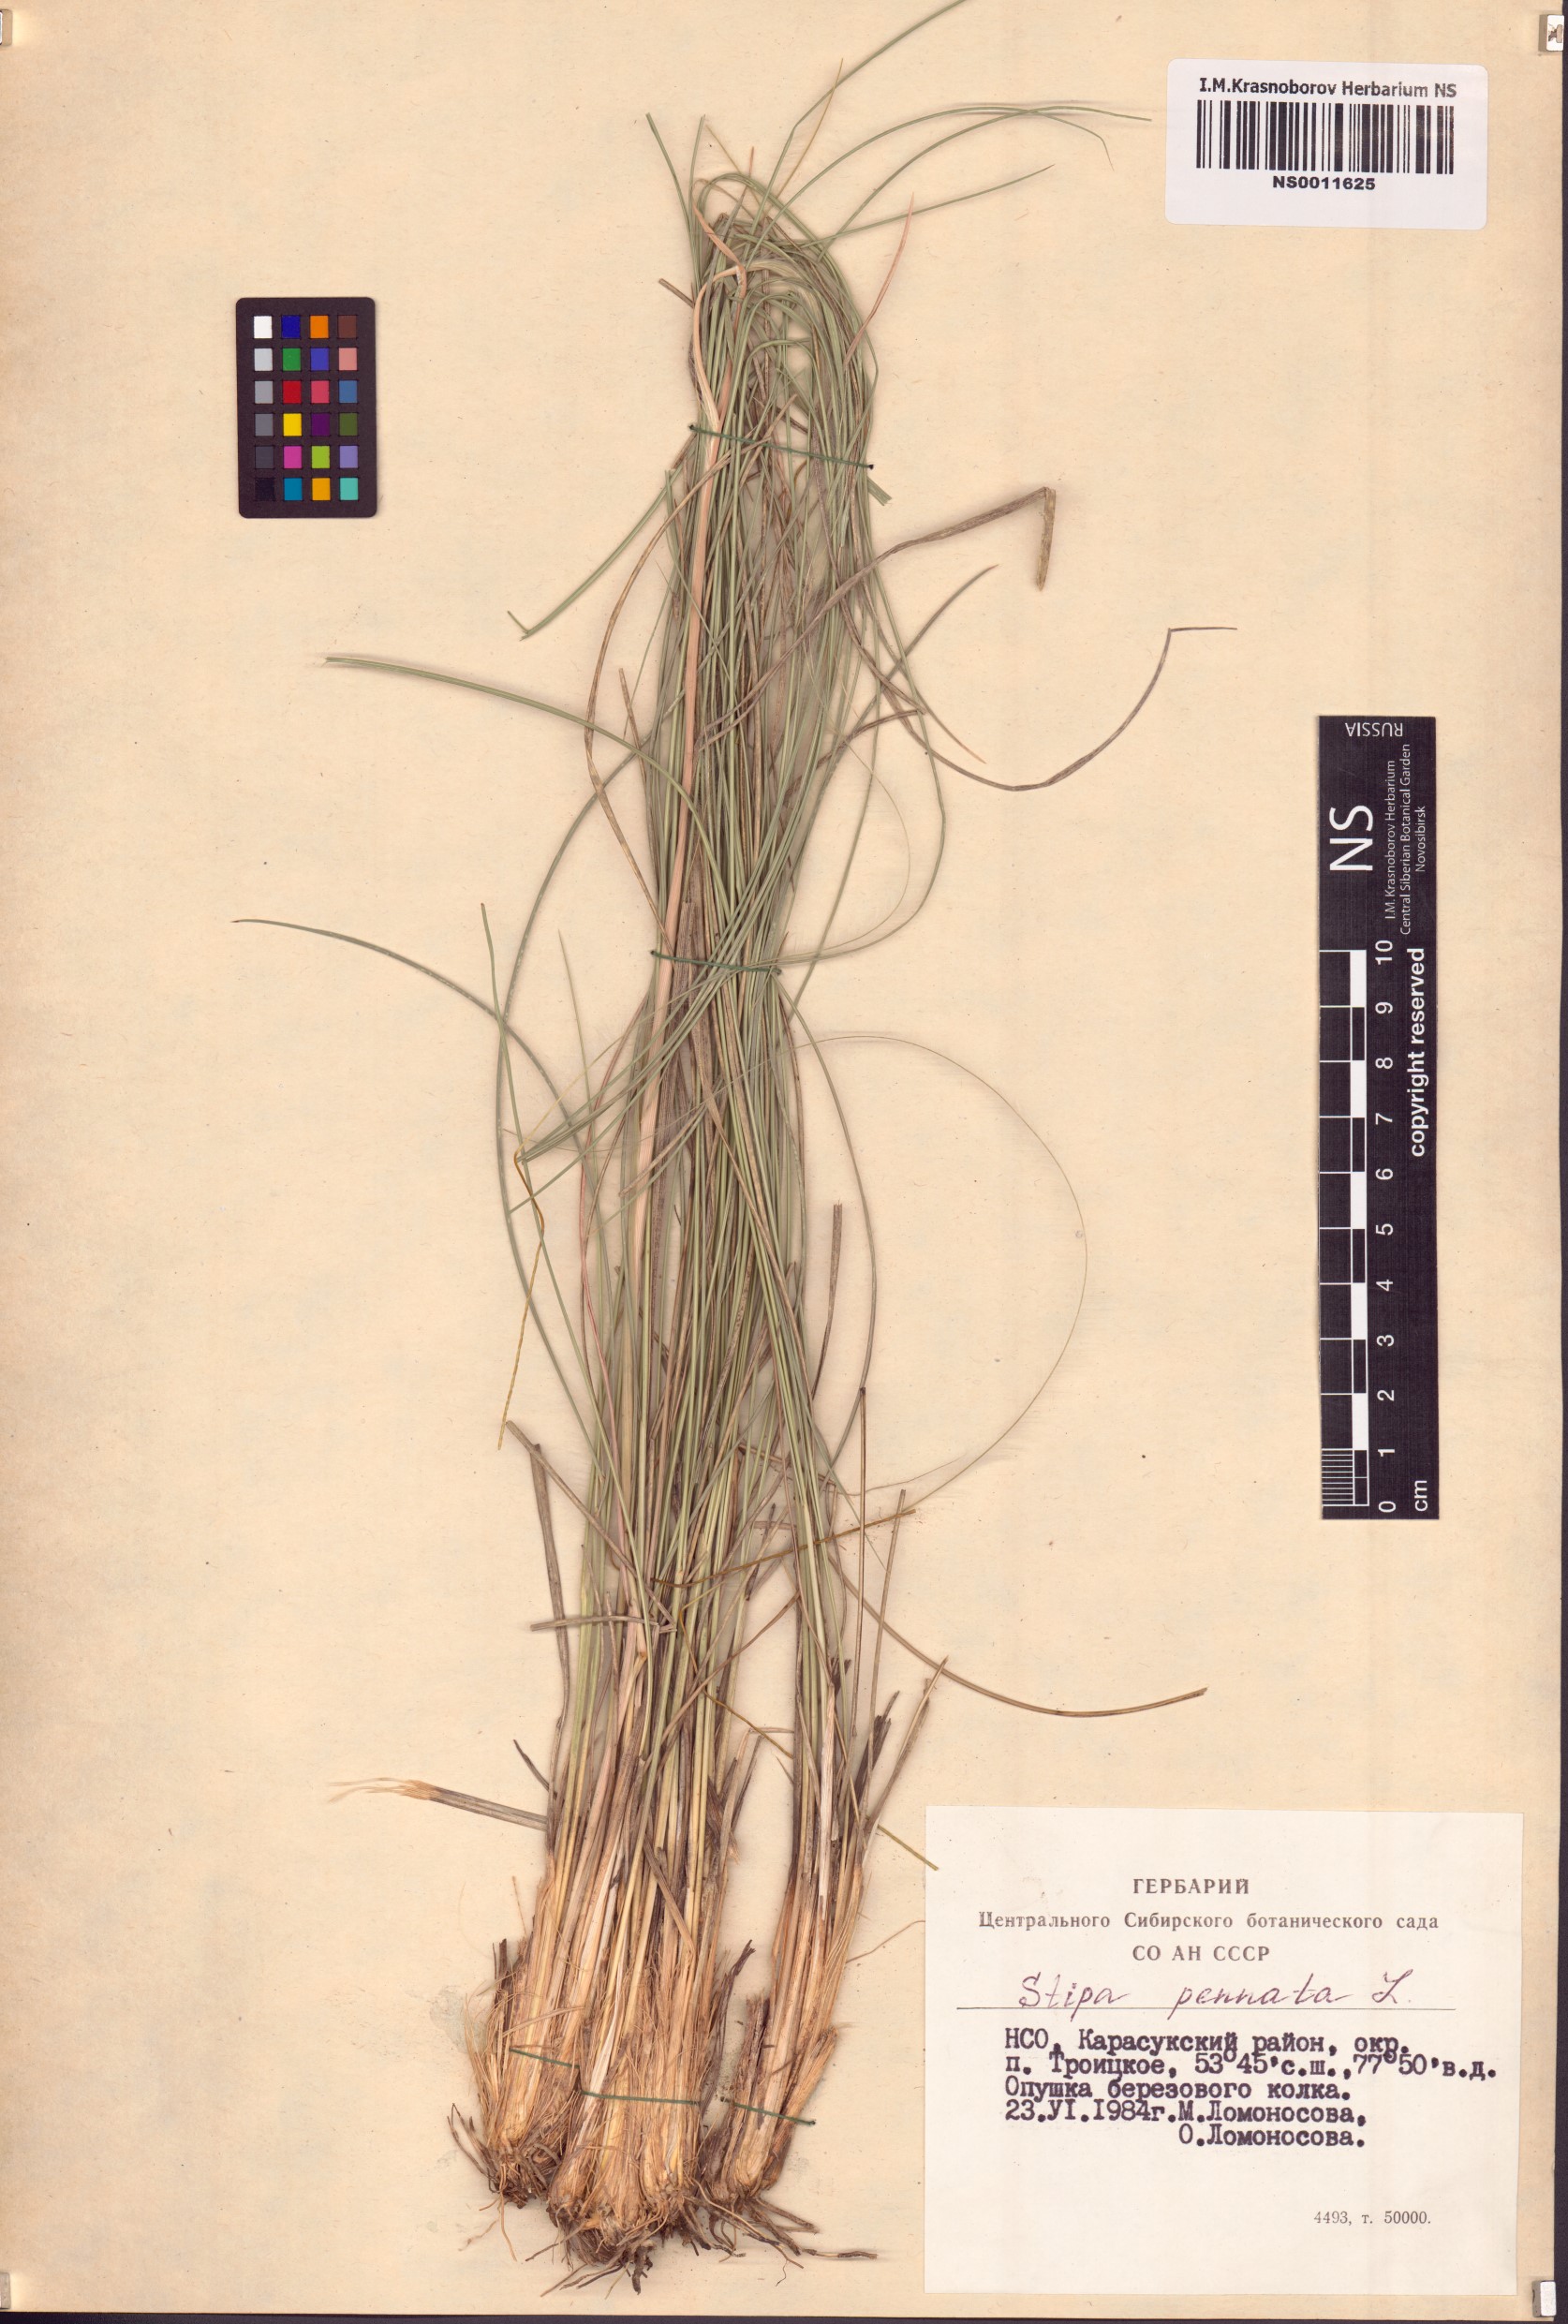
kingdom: Plantae
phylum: Tracheophyta
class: Liliopsida
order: Poales
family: Poaceae
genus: Stipa
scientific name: Stipa pennata
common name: European feather grass
